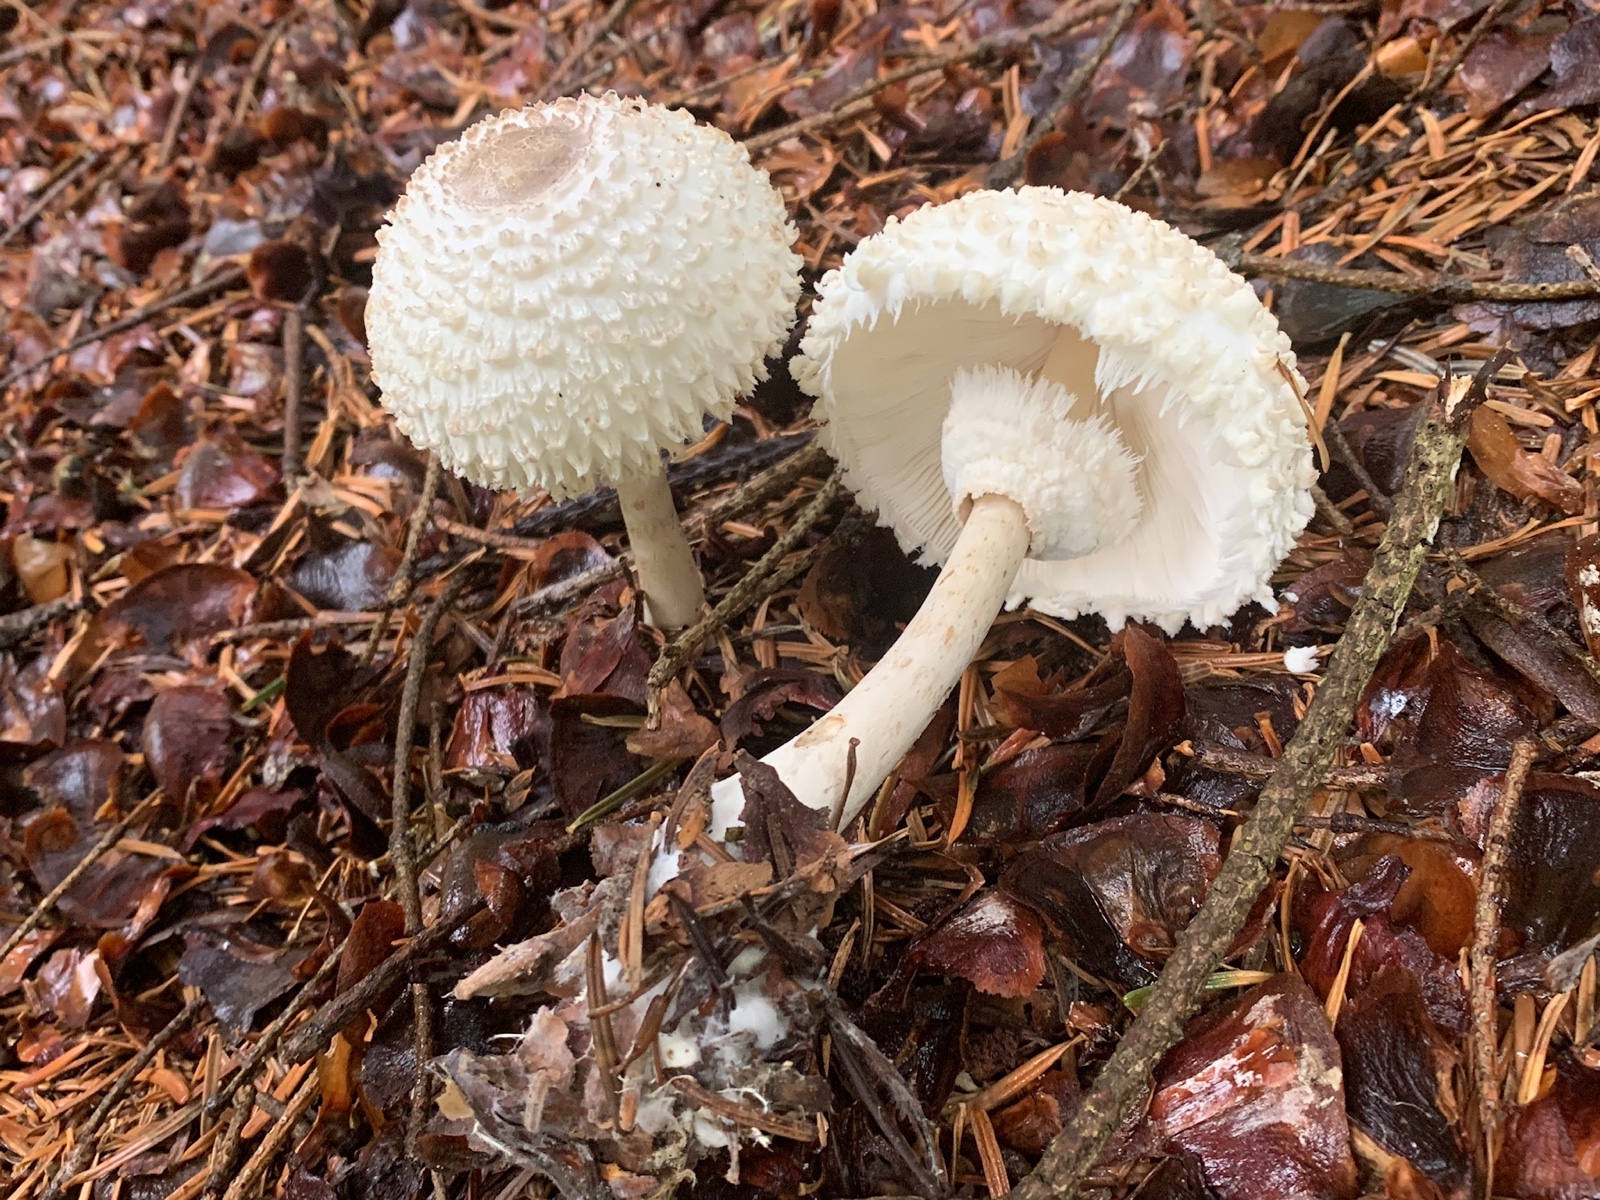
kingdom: Fungi
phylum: Basidiomycota
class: Agaricomycetes
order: Agaricales
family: Agaricaceae
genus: Leucoagaricus
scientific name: Leucoagaricus nympharum
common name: gran-silkehat
